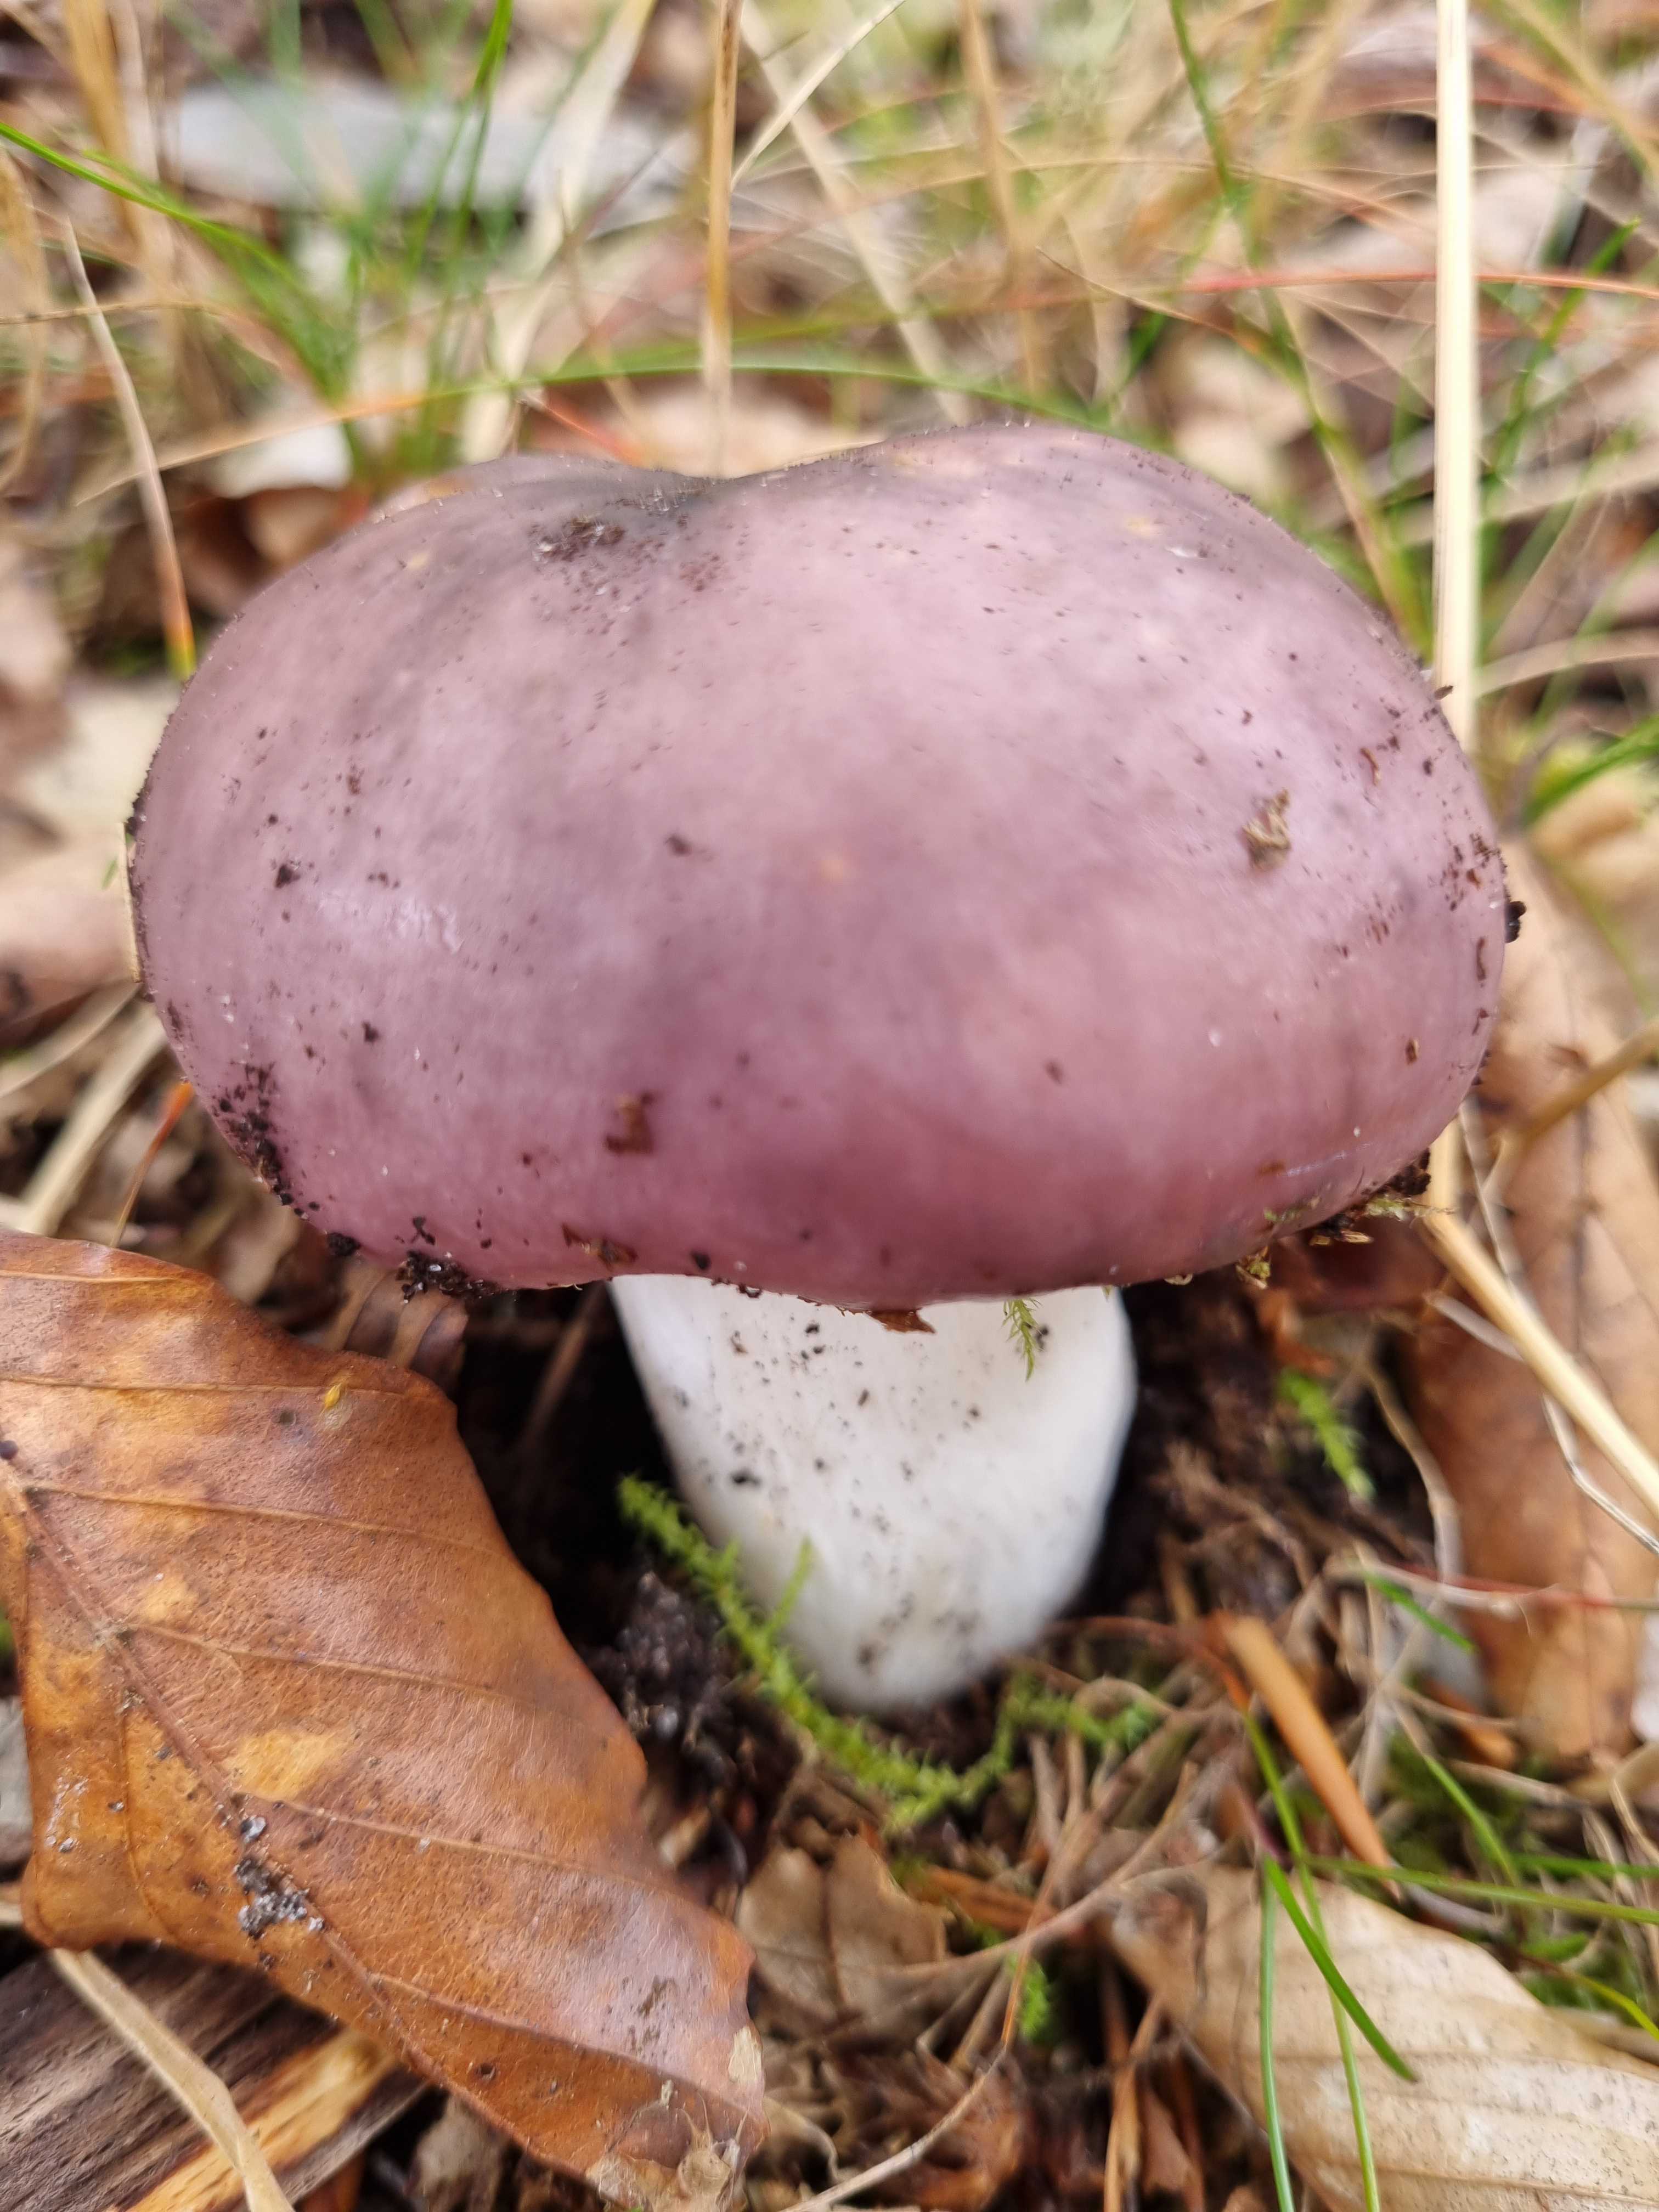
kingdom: Fungi
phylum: Basidiomycota
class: Agaricomycetes
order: Russulales
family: Russulaceae
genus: Russula
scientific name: Russula cyanoxantha
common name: broget skørhat
